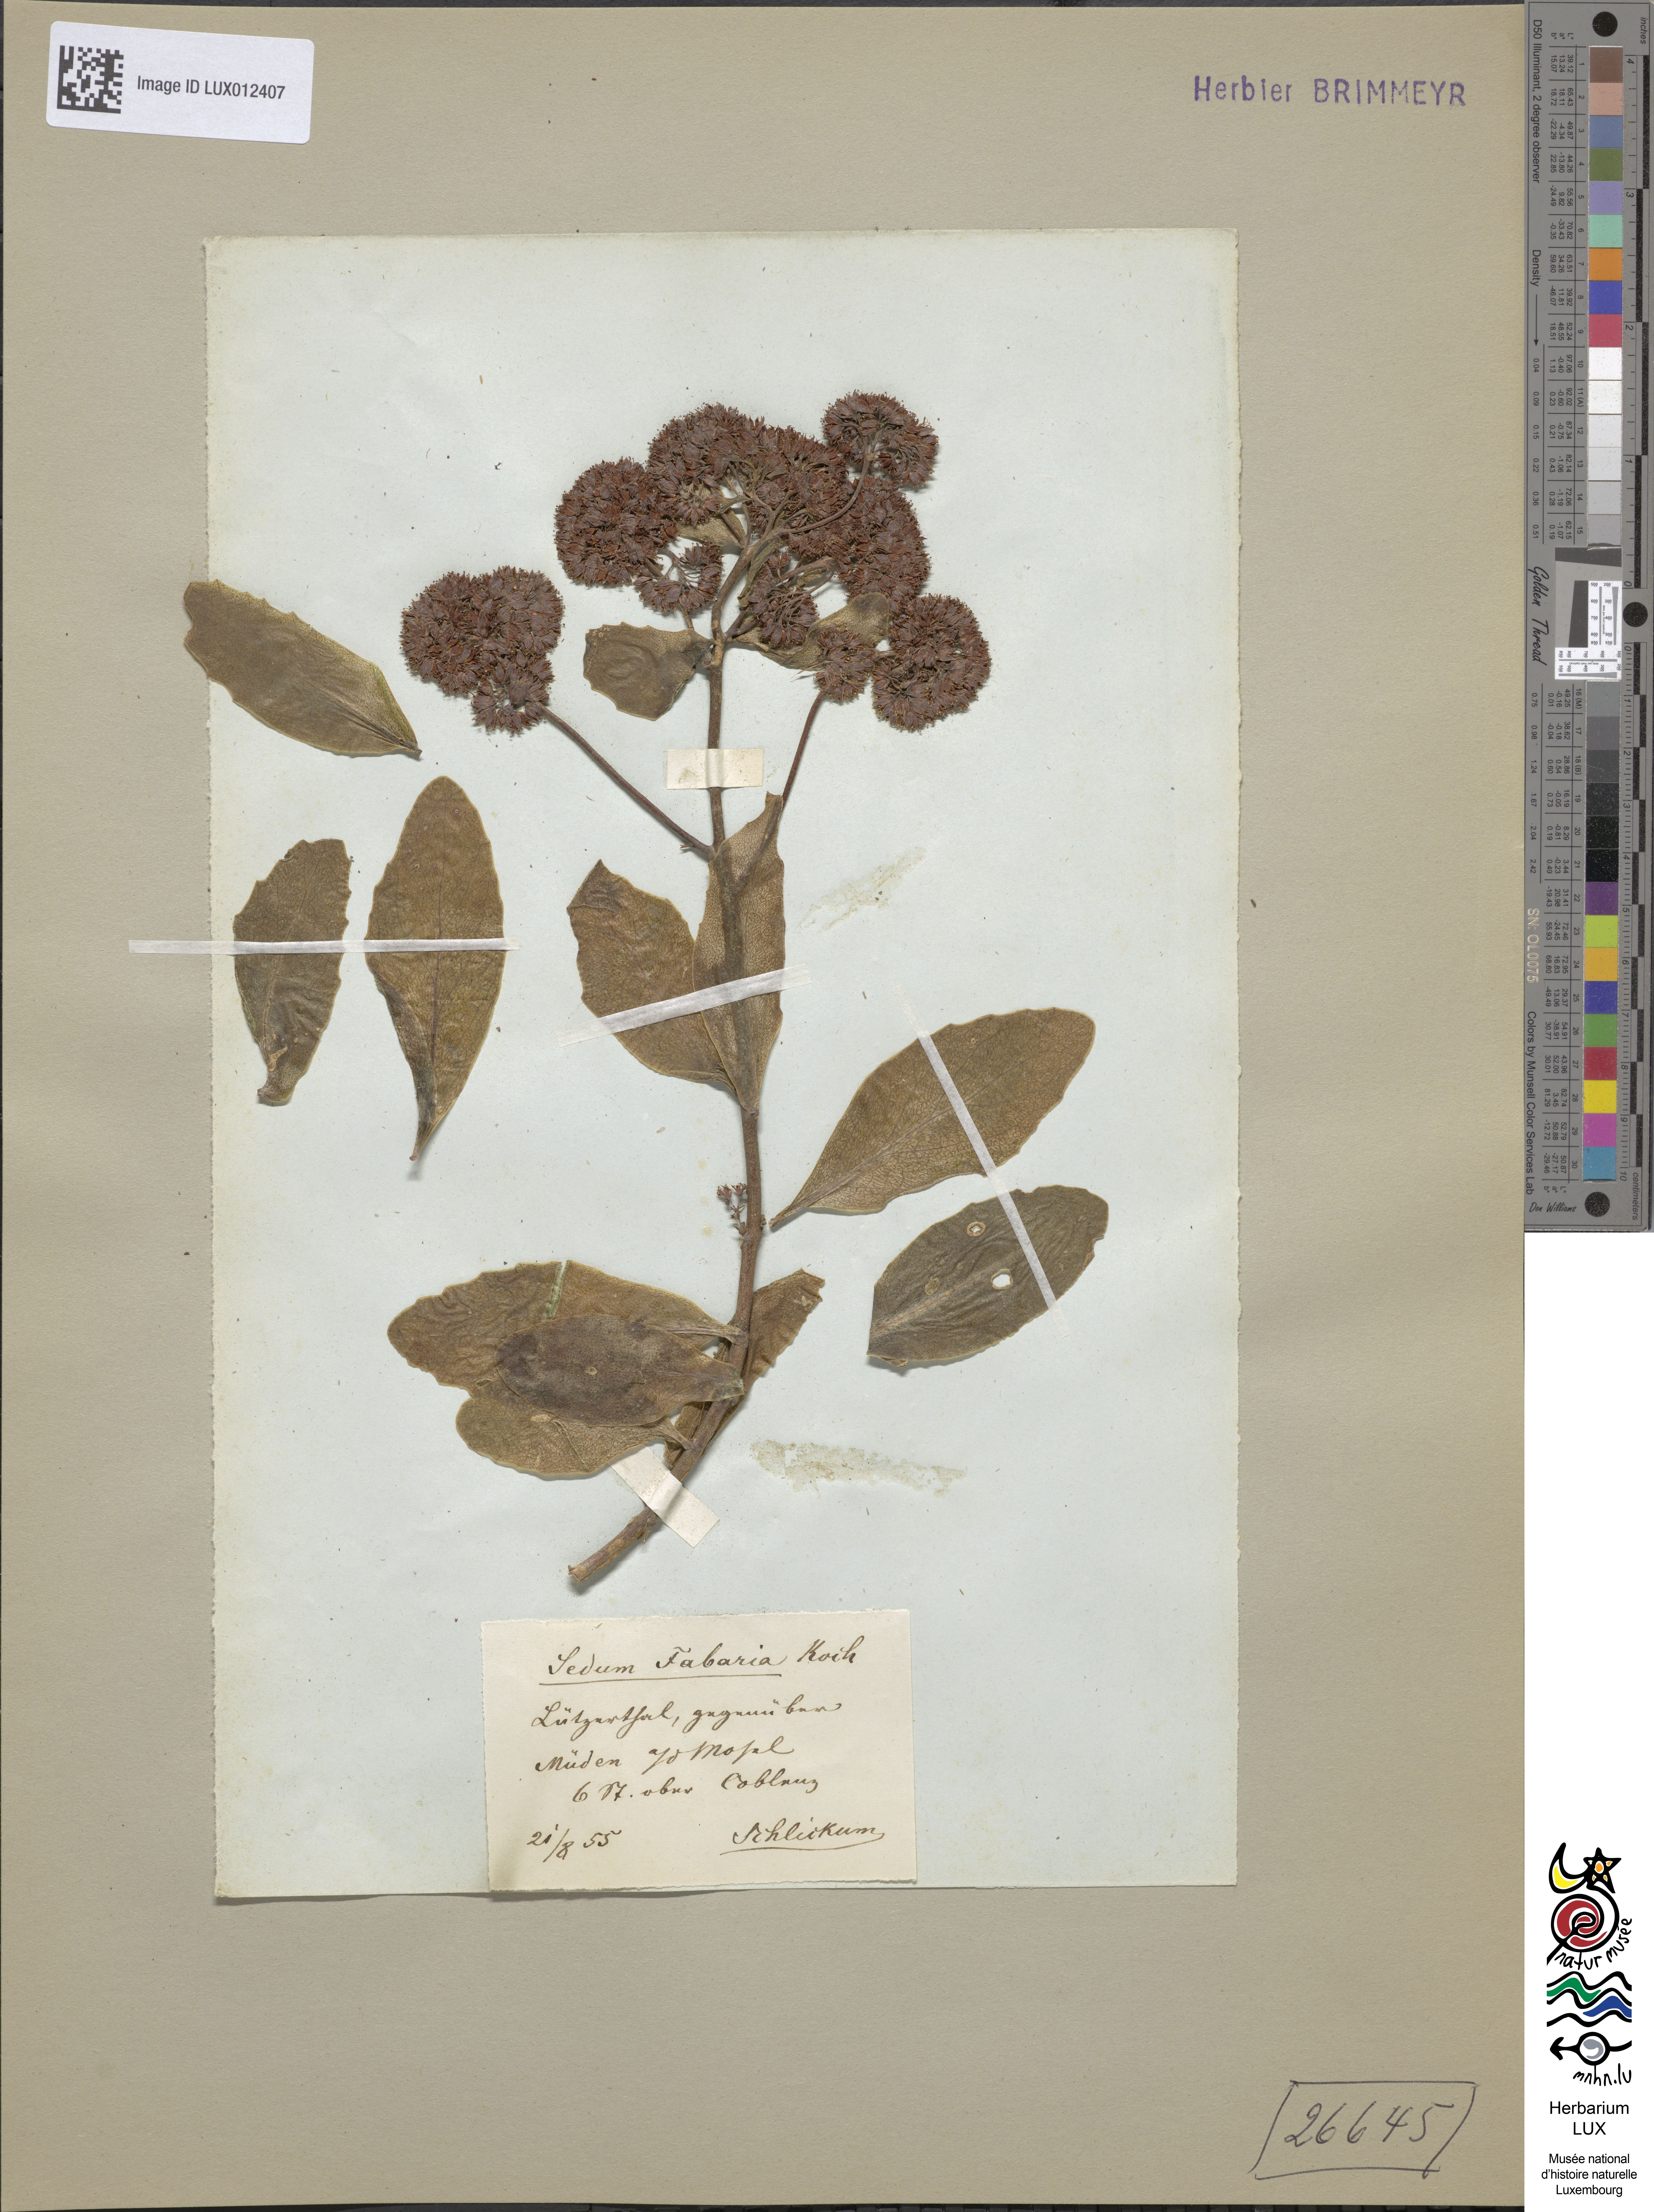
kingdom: Plantae
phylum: Tracheophyta
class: Magnoliopsida
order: Saxifragales
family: Crassulaceae
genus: Hylotelephium
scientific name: Hylotelephium vulgare
